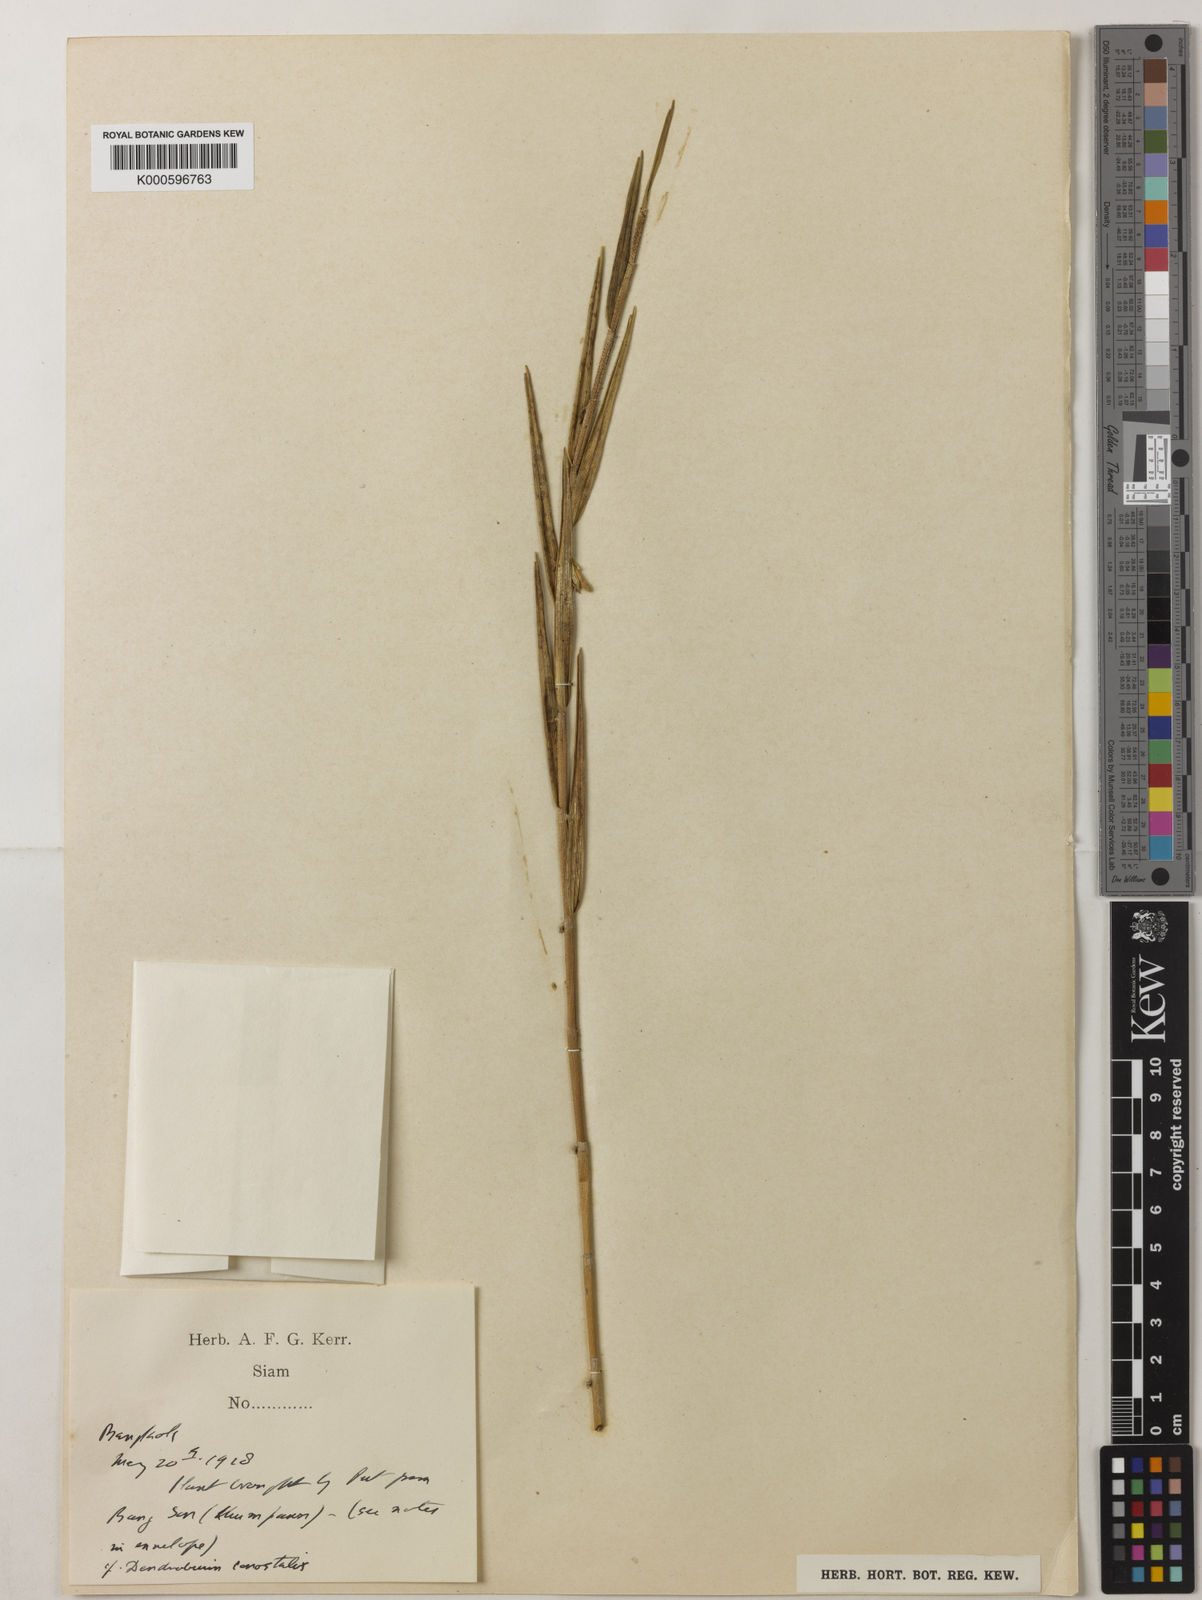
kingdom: Plantae
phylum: Tracheophyta
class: Liliopsida
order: Asparagales
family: Orchidaceae
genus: Dendrobium
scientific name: Dendrobium
